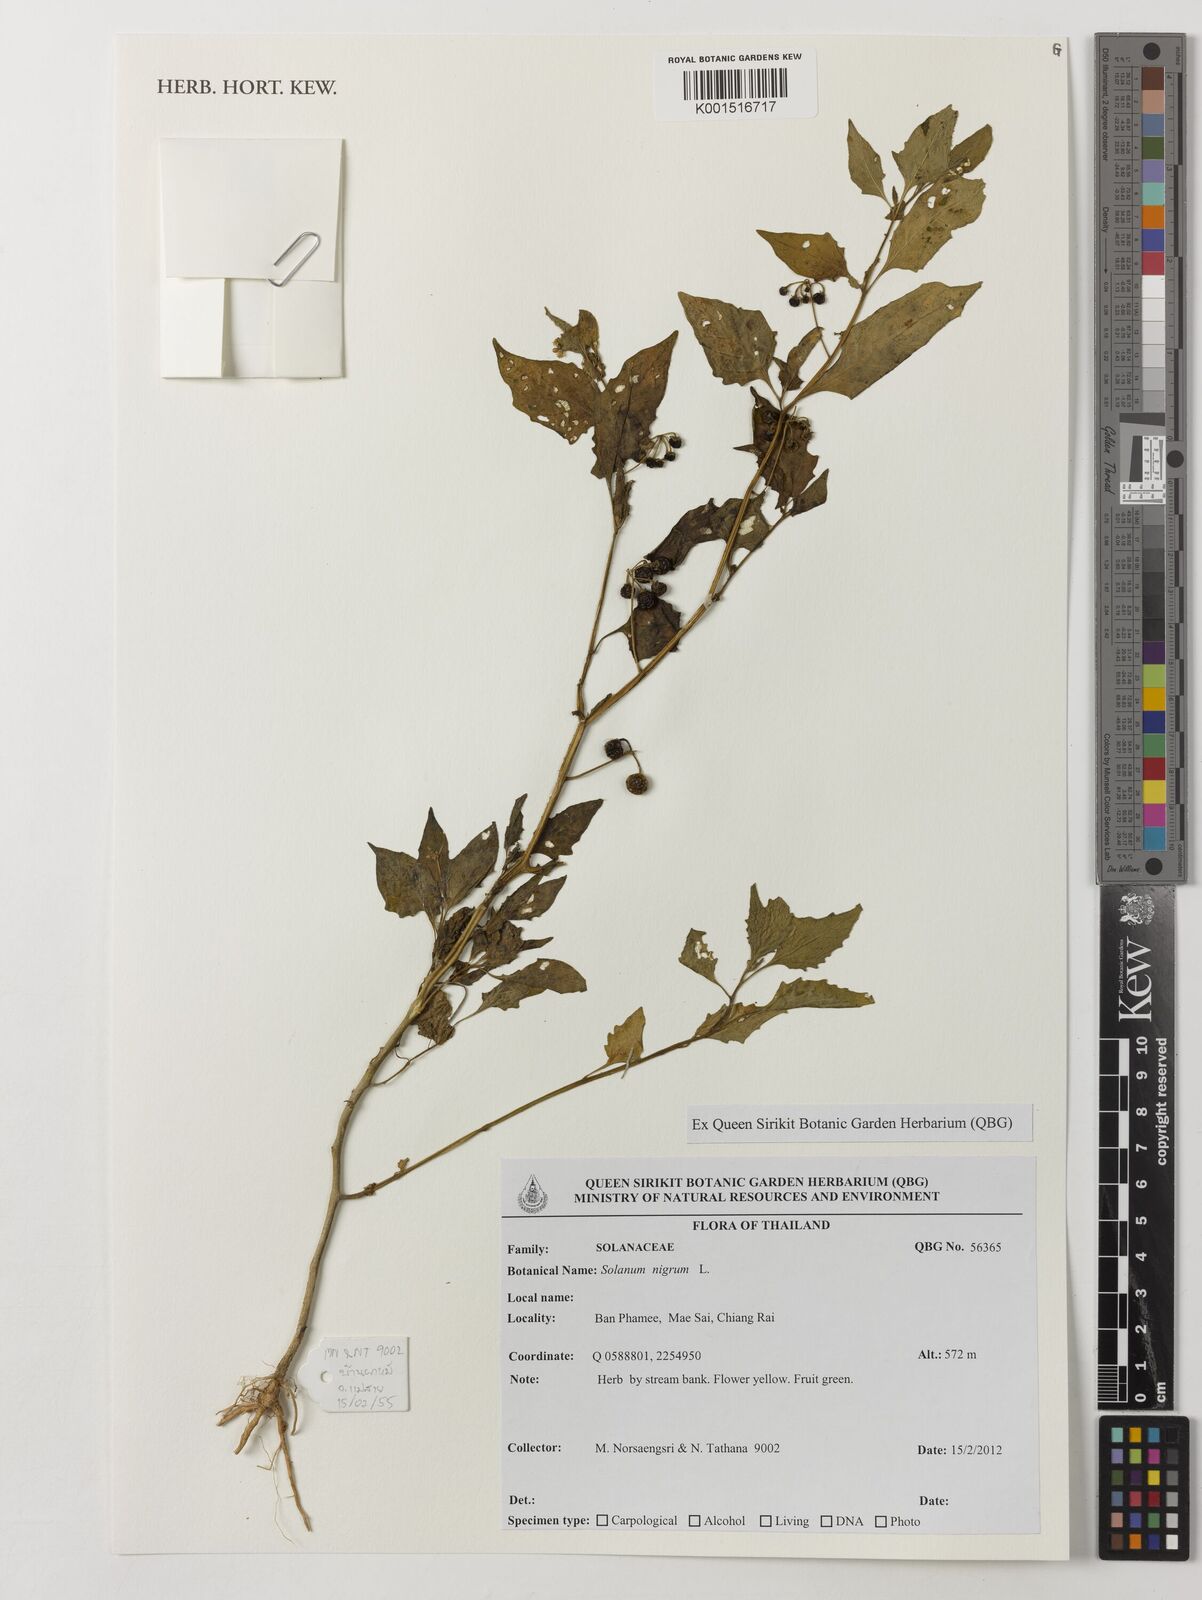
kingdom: Plantae
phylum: Tracheophyta
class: Magnoliopsida
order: Solanales
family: Solanaceae
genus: Solanum
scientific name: Solanum nigrum
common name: Black nightshade
